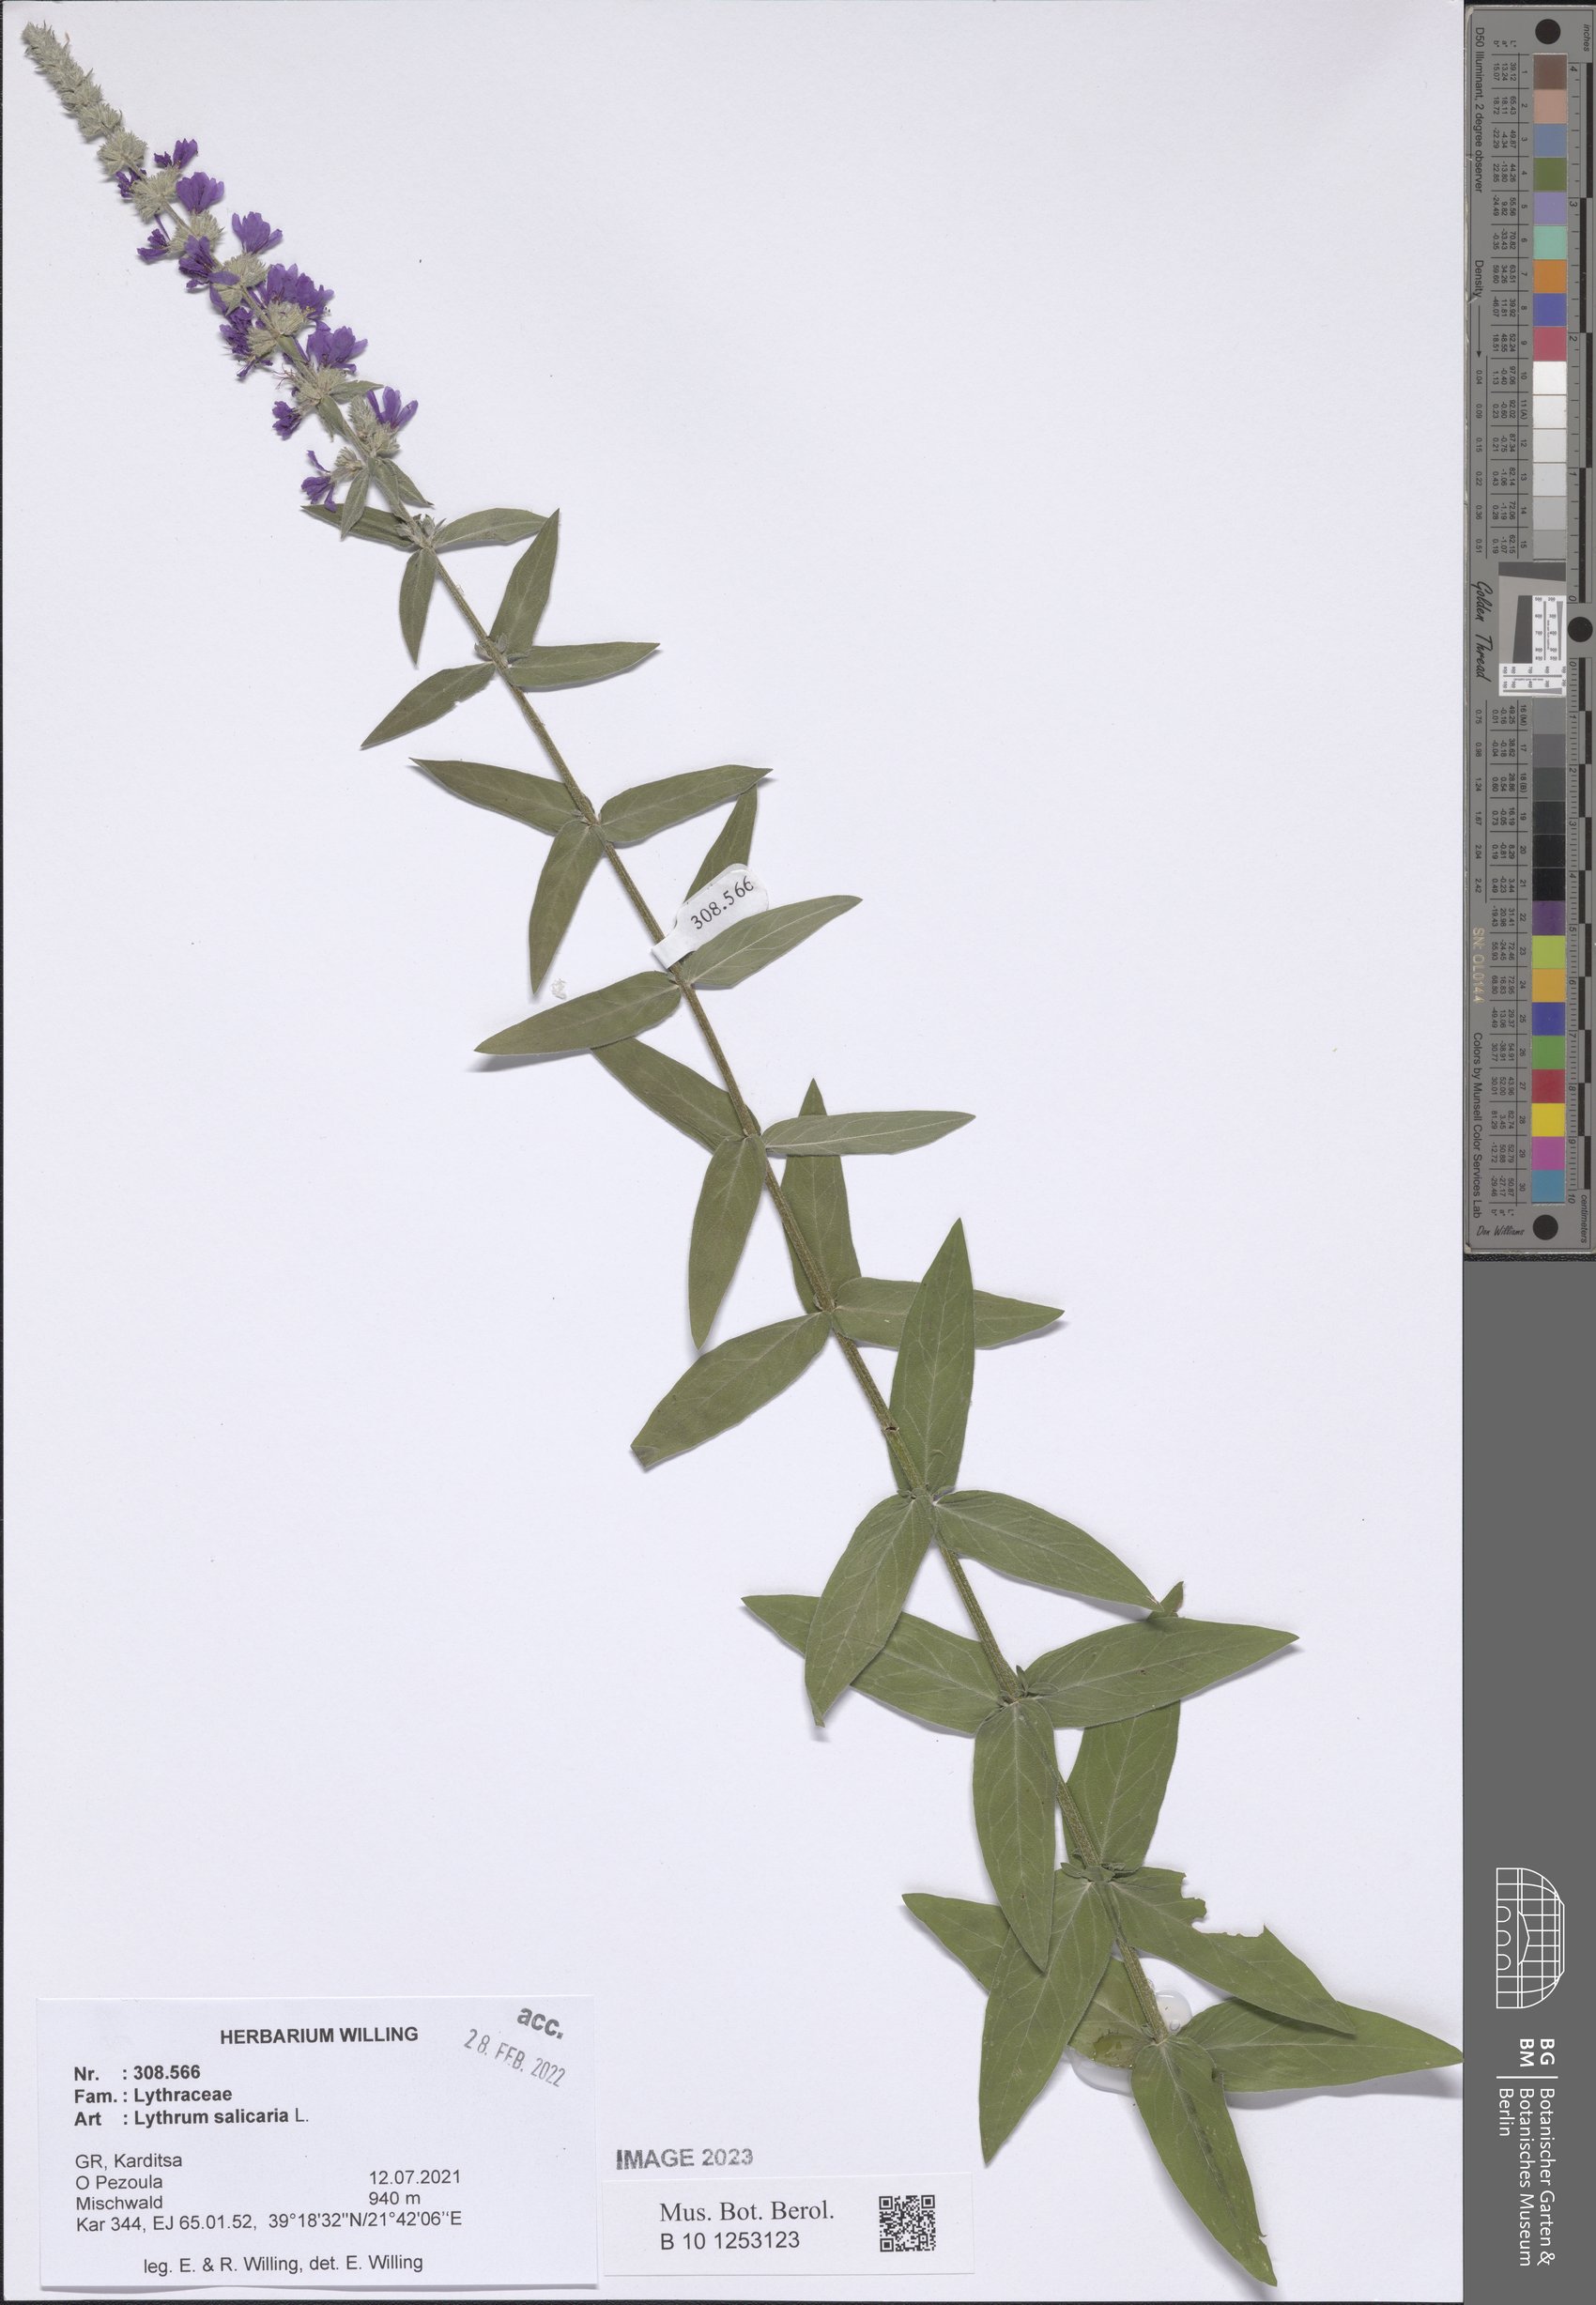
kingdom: Plantae
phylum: Tracheophyta
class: Magnoliopsida
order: Myrtales
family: Lythraceae
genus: Lythrum
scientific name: Lythrum salicaria
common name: Purple loosestrife
